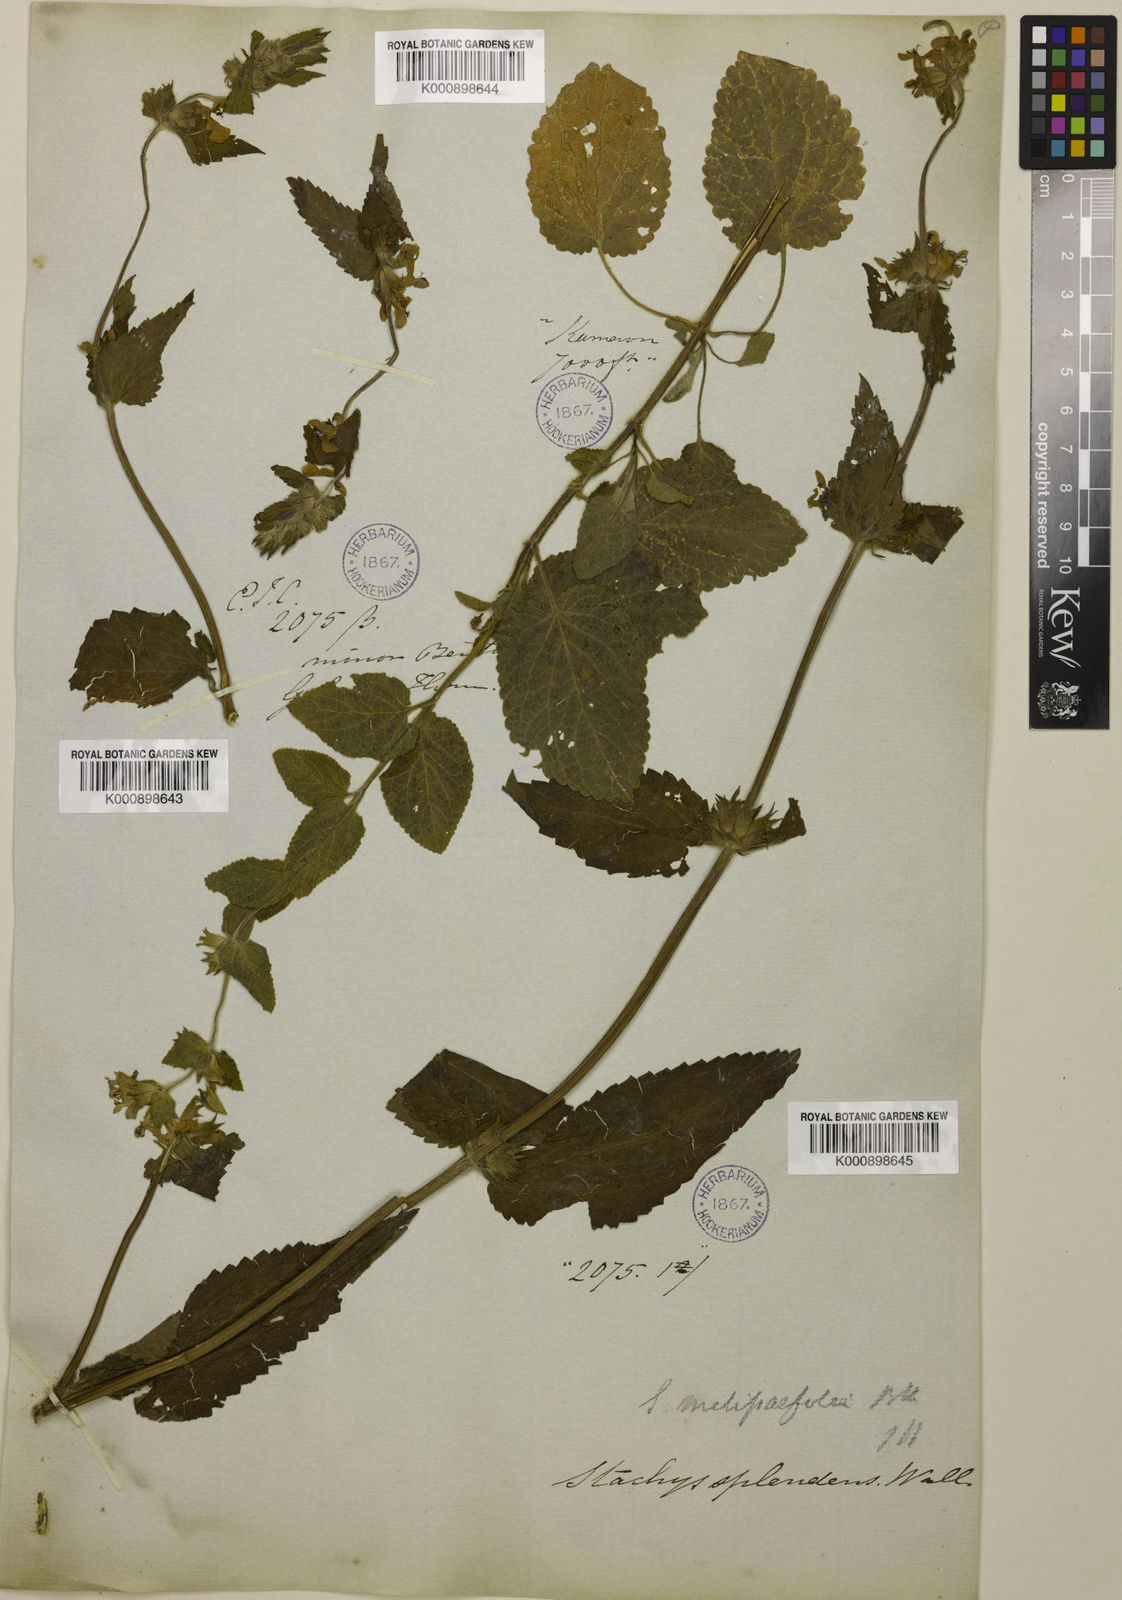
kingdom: Plantae
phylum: Tracheophyta
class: Magnoliopsida
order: Lamiales
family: Lamiaceae
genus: Stachys
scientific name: Stachys splendens
